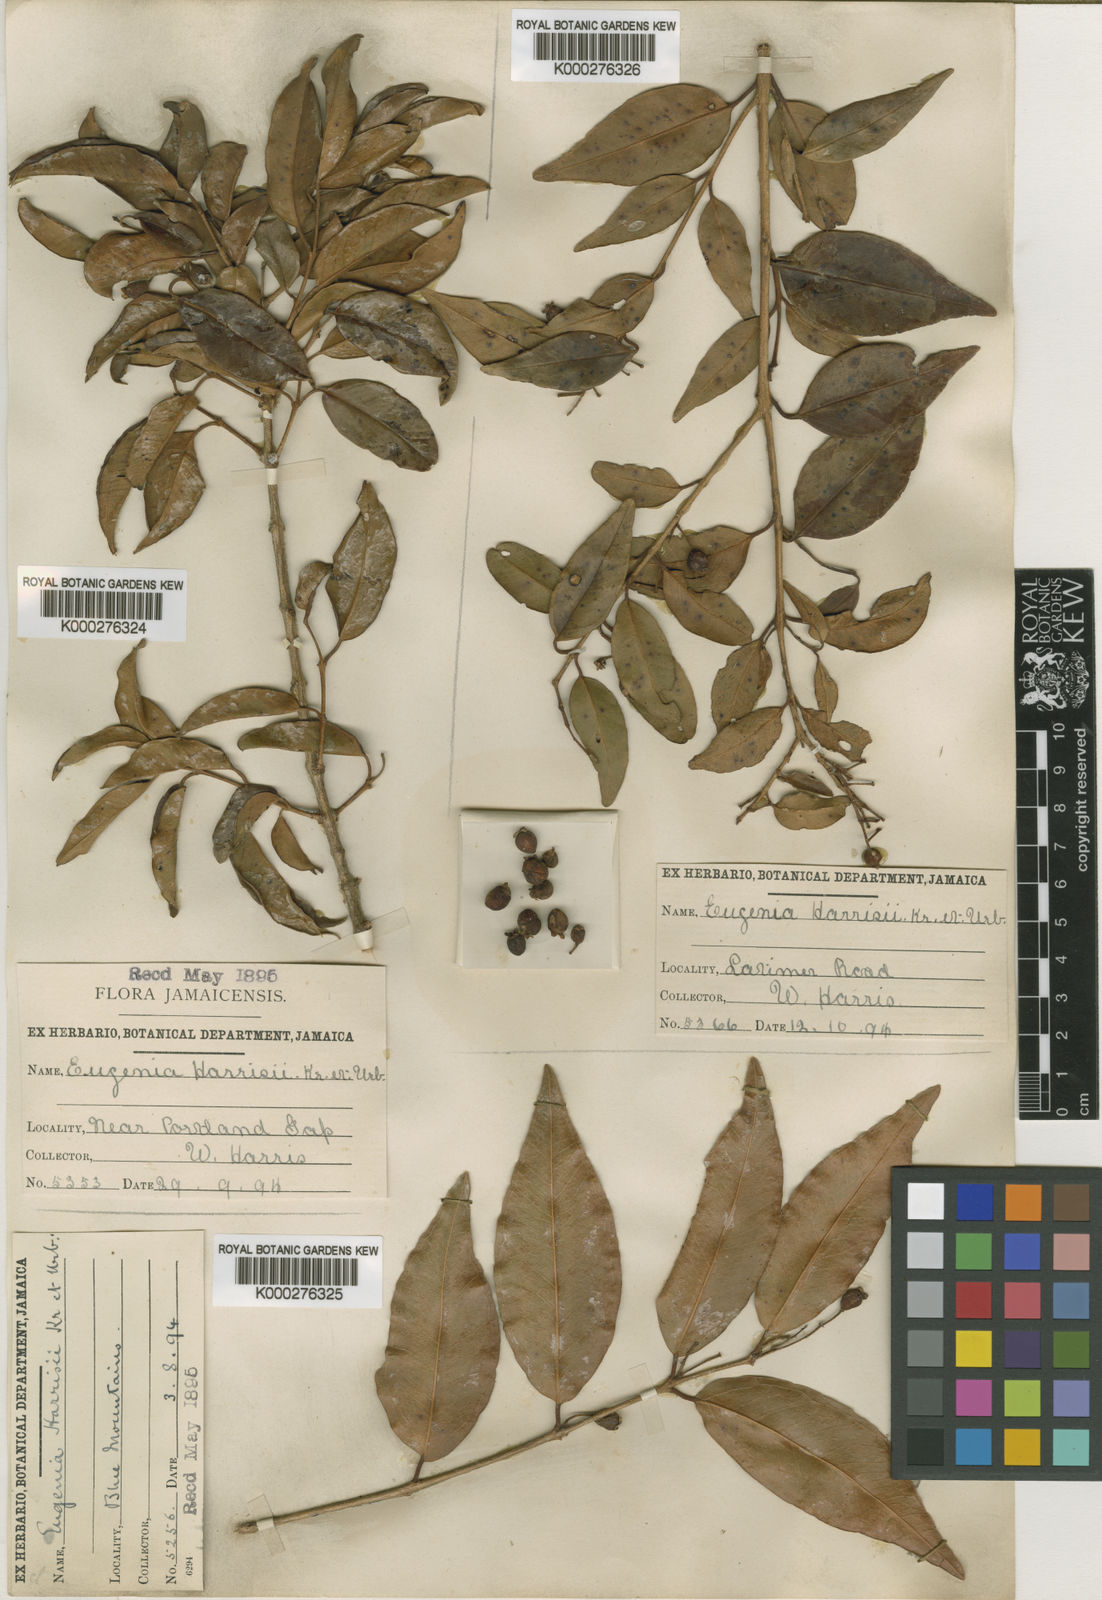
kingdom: Plantae
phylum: Tracheophyta
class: Magnoliopsida
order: Myrtales
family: Myrtaceae
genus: Eugenia
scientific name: Eugenia harrisii
